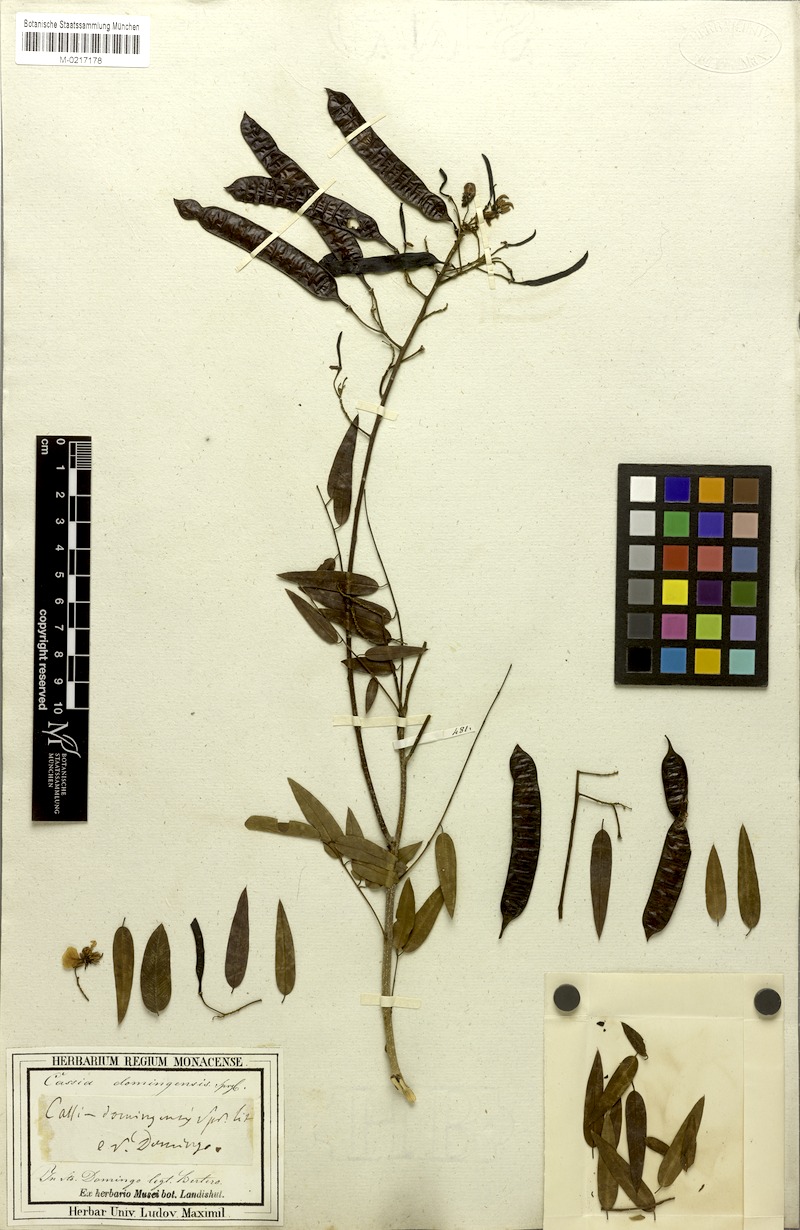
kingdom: Plantae
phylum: Tracheophyta
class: Magnoliopsida
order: Fabales
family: Fabaceae
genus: Senna
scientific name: Senna domingensis
